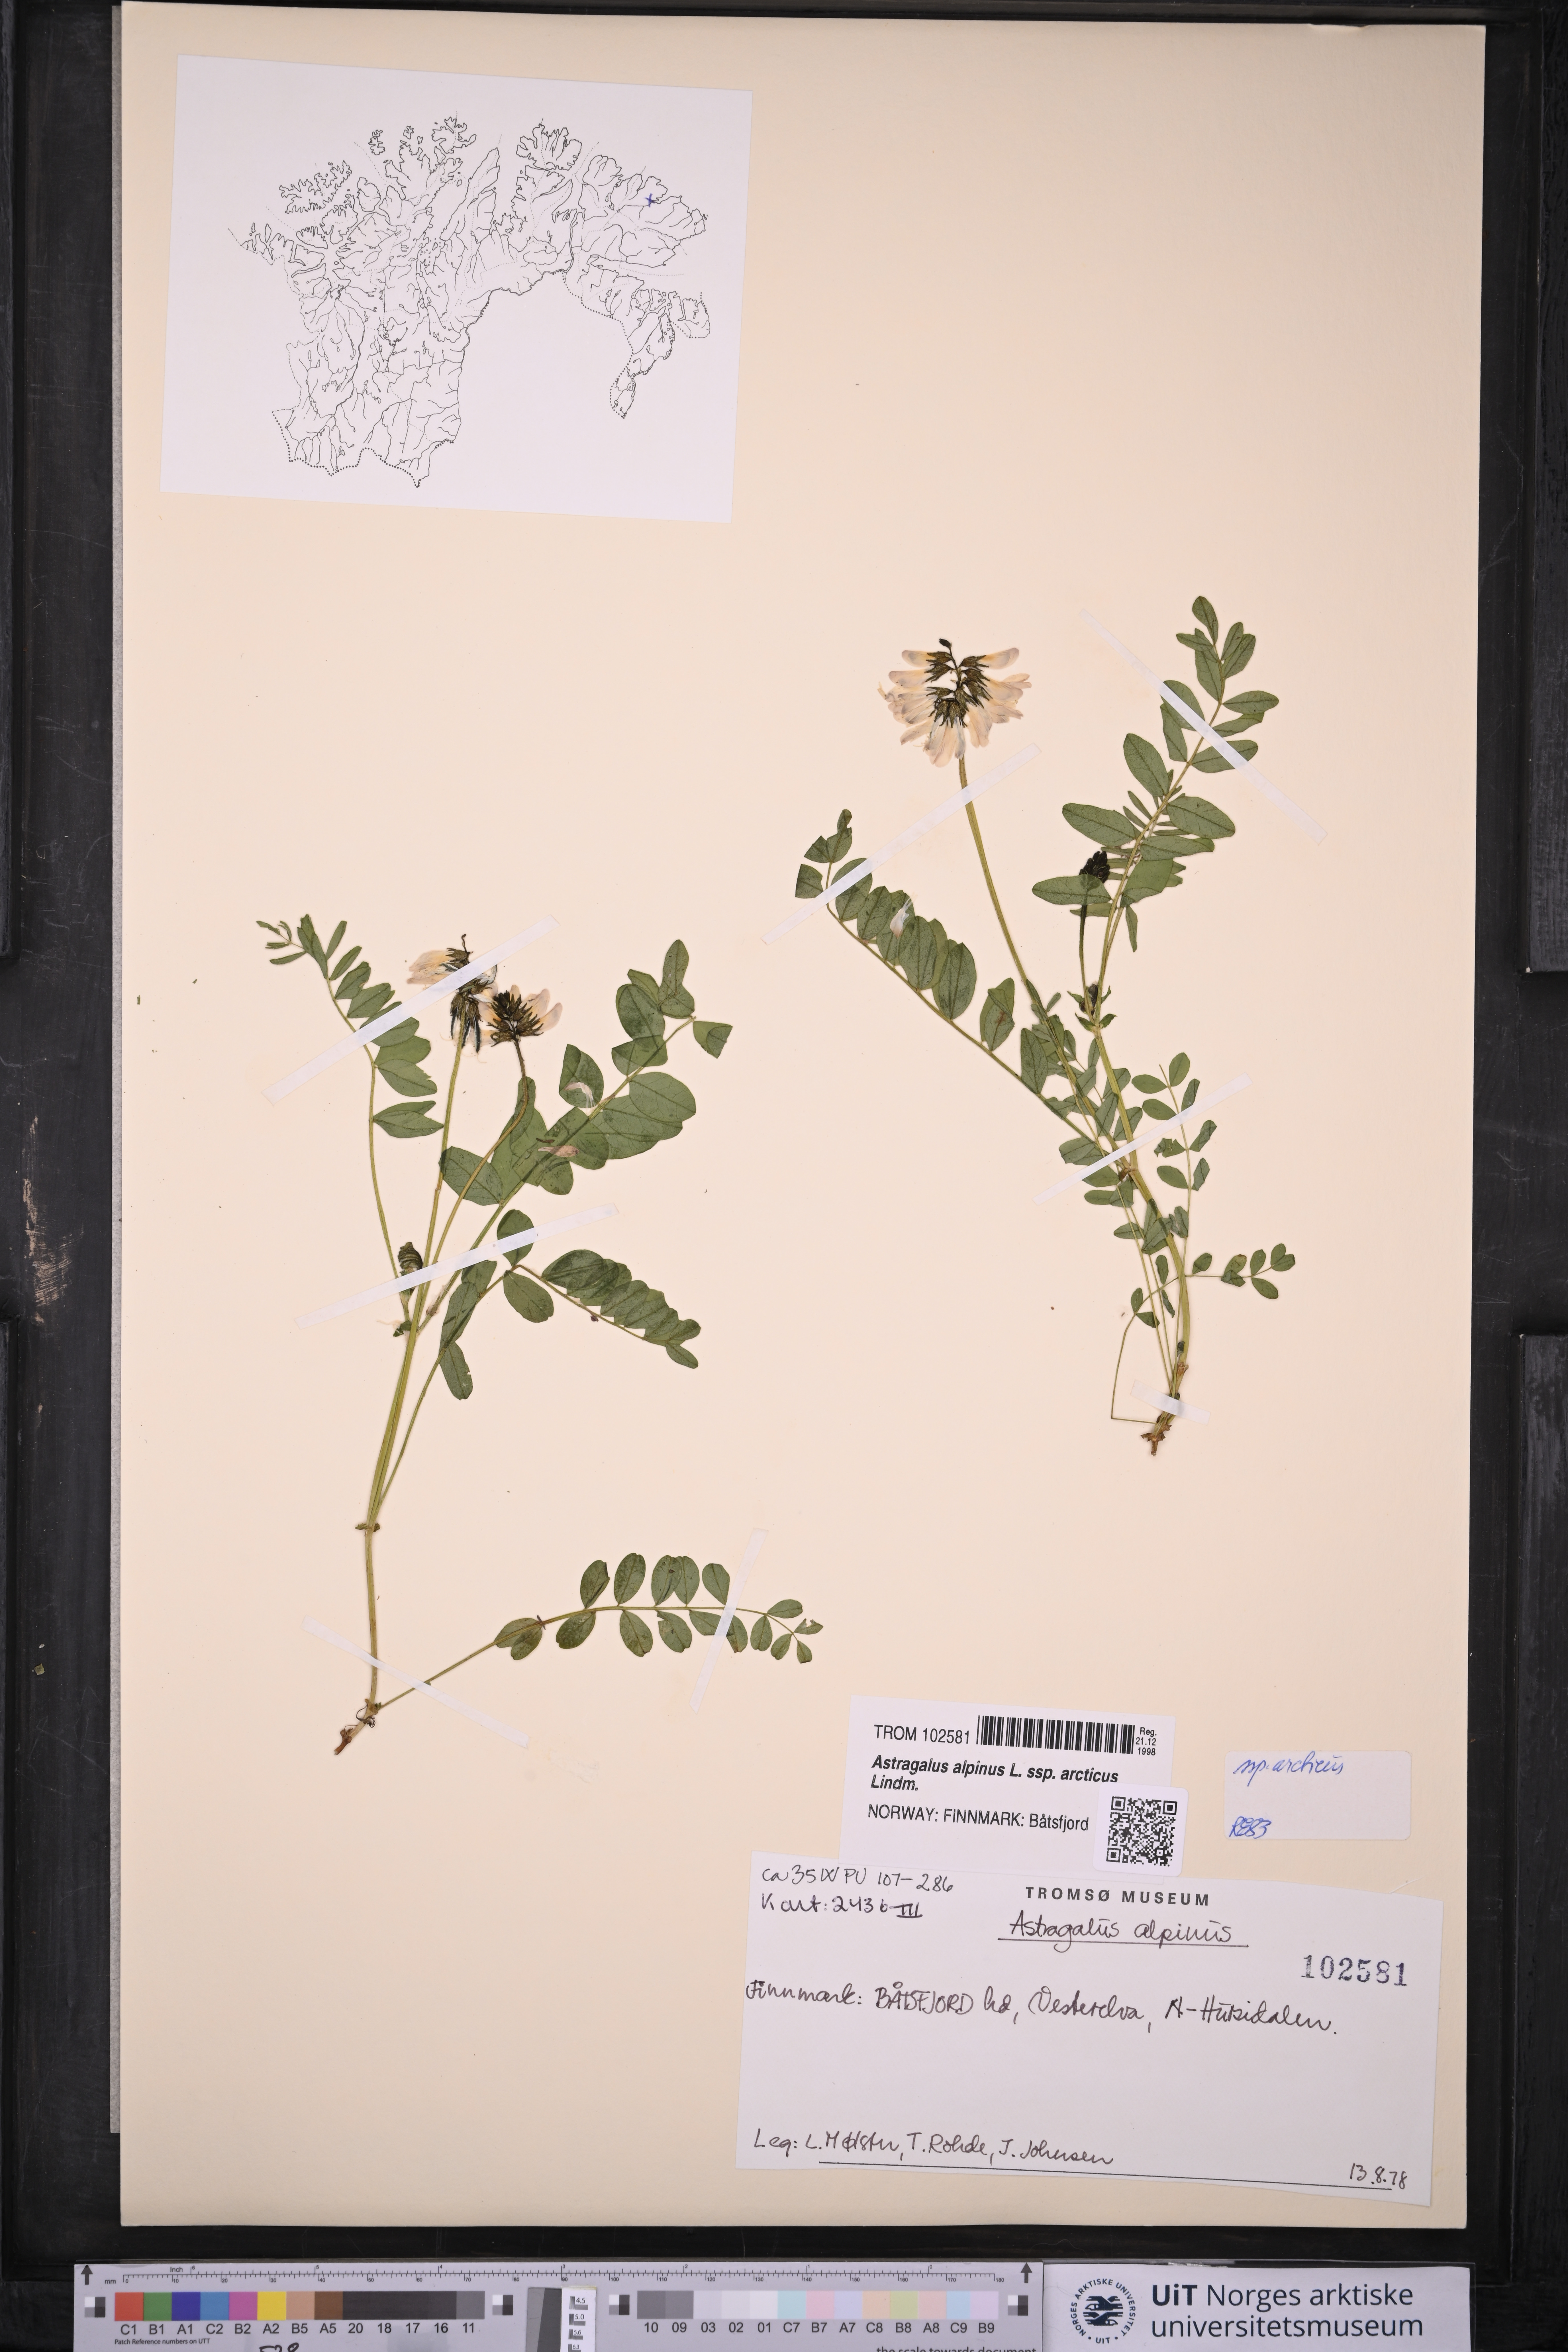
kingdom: Plantae
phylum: Tracheophyta
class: Magnoliopsida
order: Fabales
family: Fabaceae
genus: Astragalus
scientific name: Astragalus norvegicus
